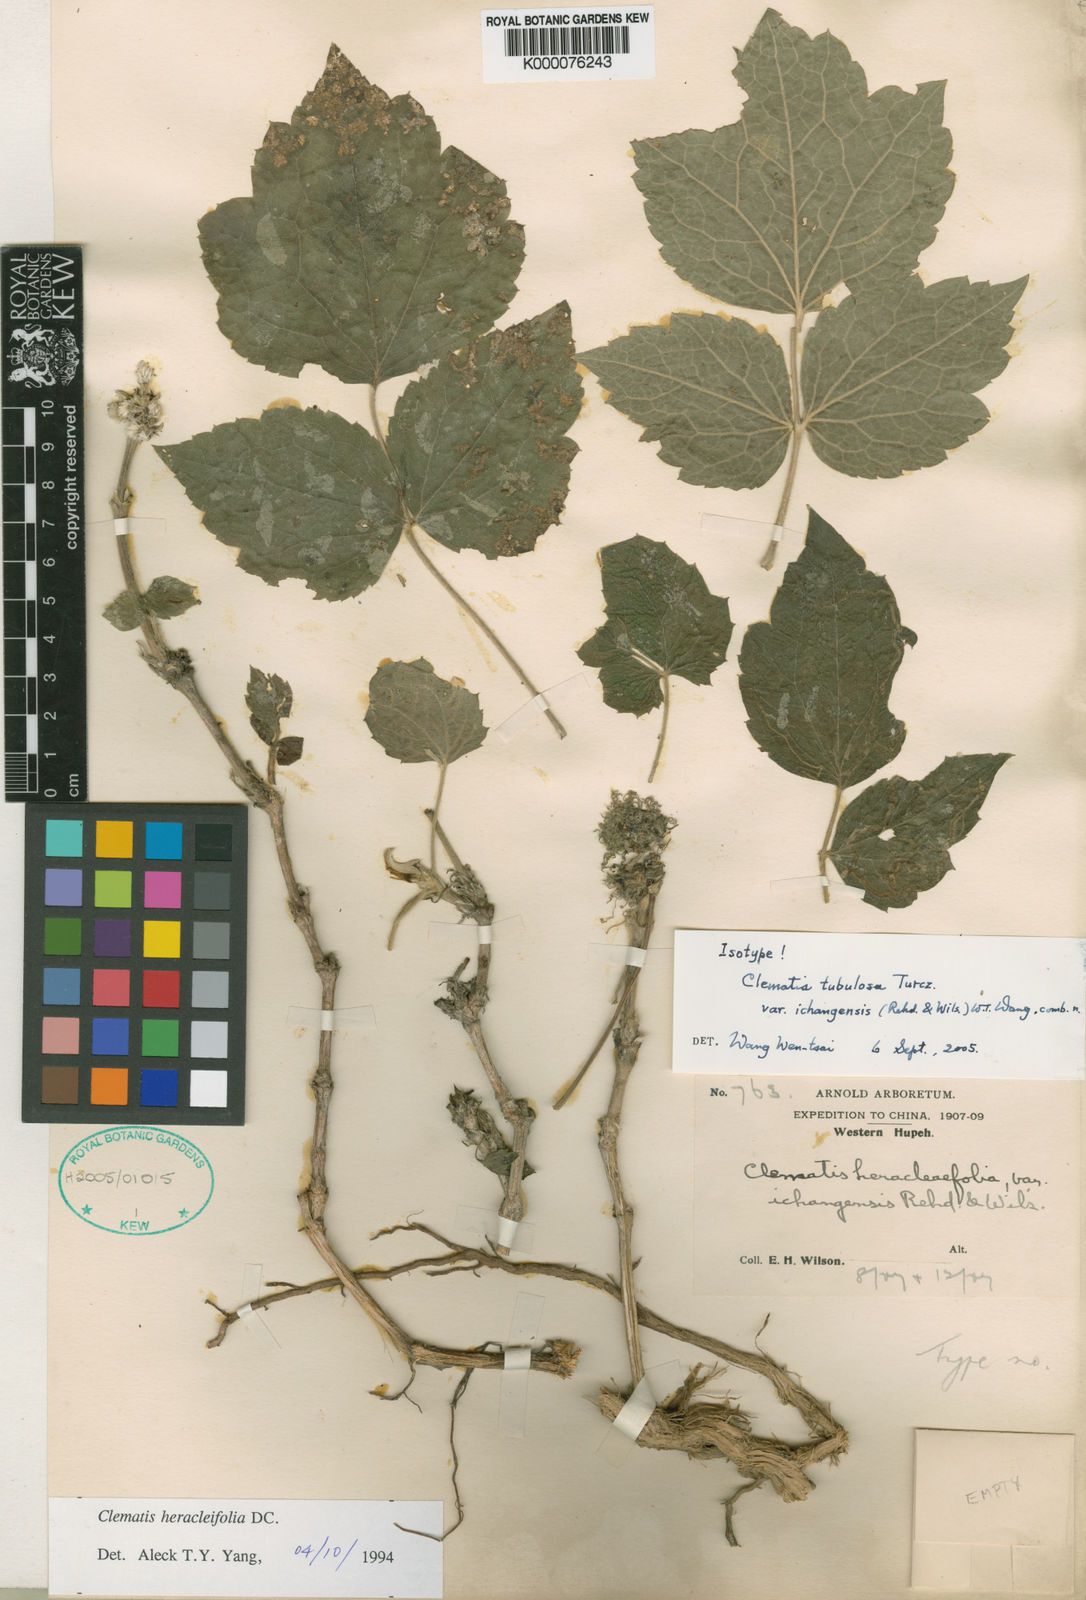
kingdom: Plantae
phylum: Tracheophyta
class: Magnoliopsida
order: Ranunculales
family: Ranunculaceae
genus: Clematis
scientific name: Clematis heracleifolia
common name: Hyacinth-flower clematis
